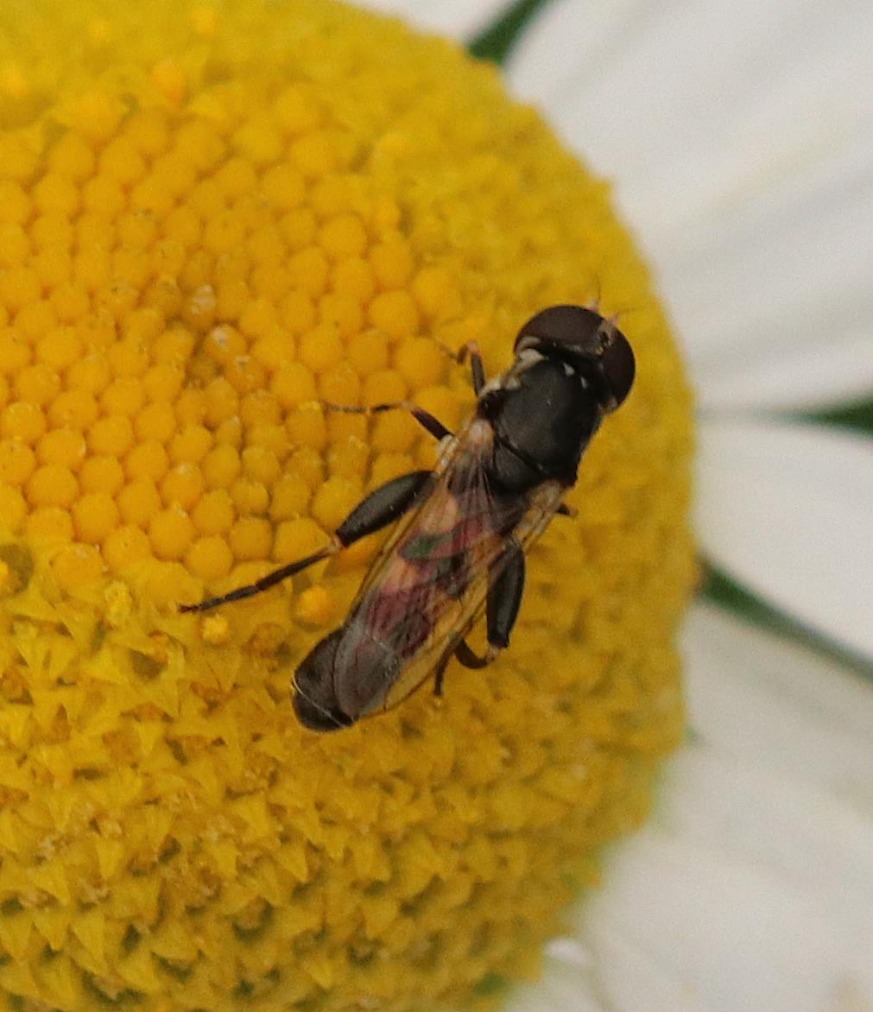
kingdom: Animalia
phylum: Arthropoda
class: Insecta
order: Diptera
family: Syrphidae
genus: Syritta
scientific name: Syritta pipiens
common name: Kompost-svirreflue
